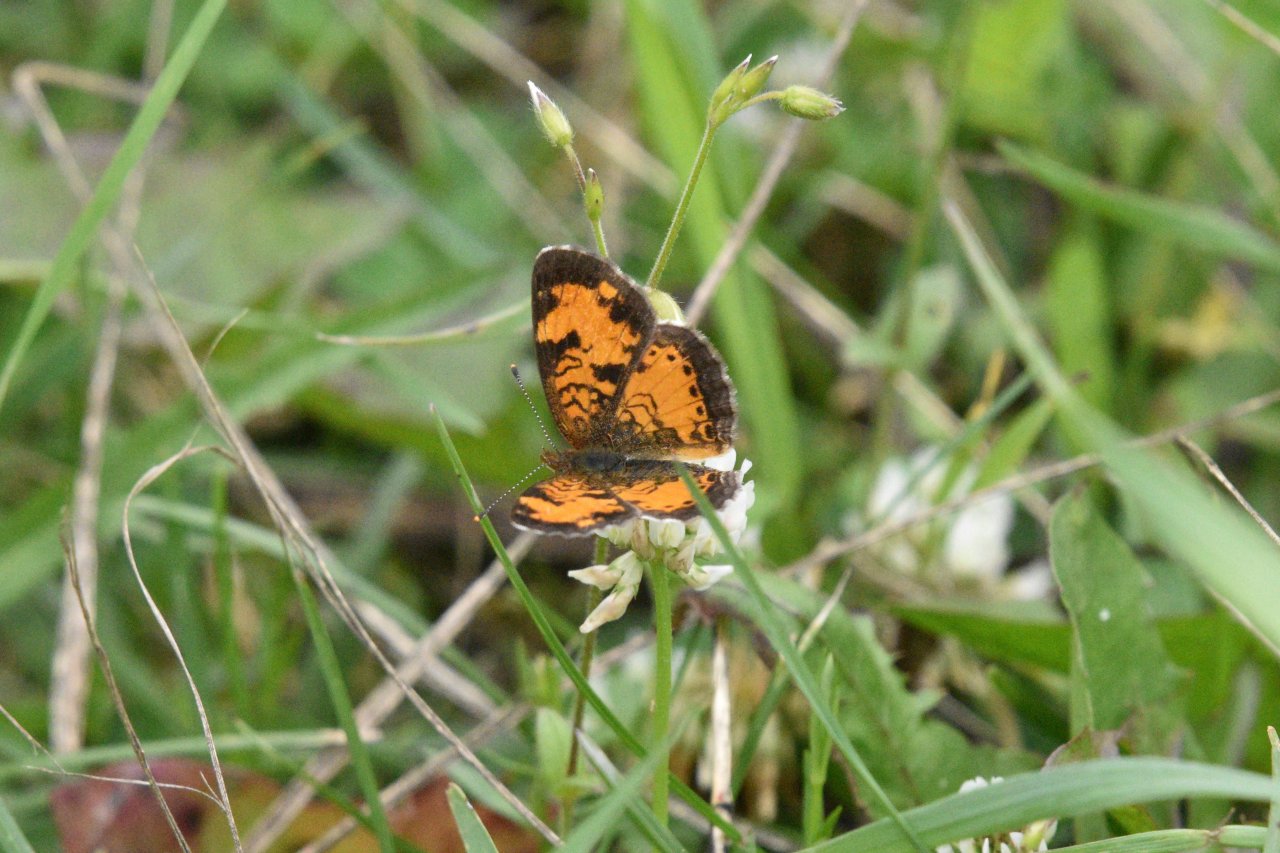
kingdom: Animalia
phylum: Arthropoda
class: Insecta
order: Lepidoptera
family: Nymphalidae
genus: Phyciodes
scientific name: Phyciodes tharos
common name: Northern Crescent
